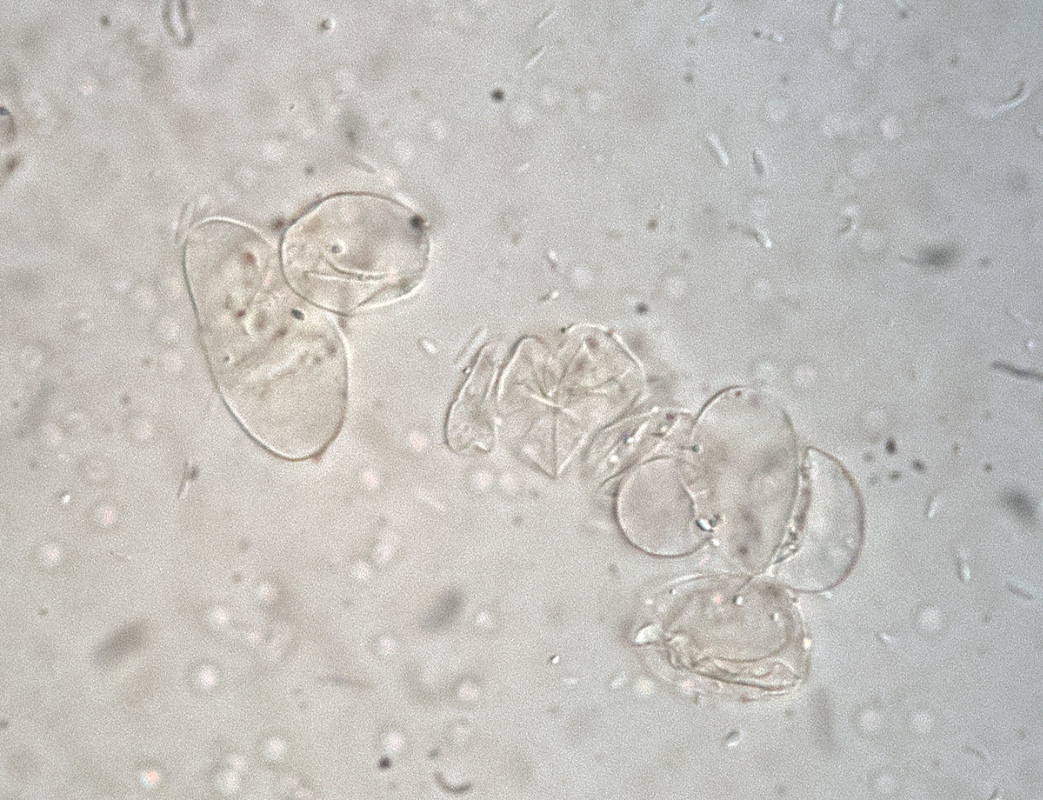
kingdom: Fungi
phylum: Basidiomycota
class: Agaricomycetes
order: Agaricales
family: Psathyrellaceae
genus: Coprinopsis
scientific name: Coprinopsis
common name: blækhat
